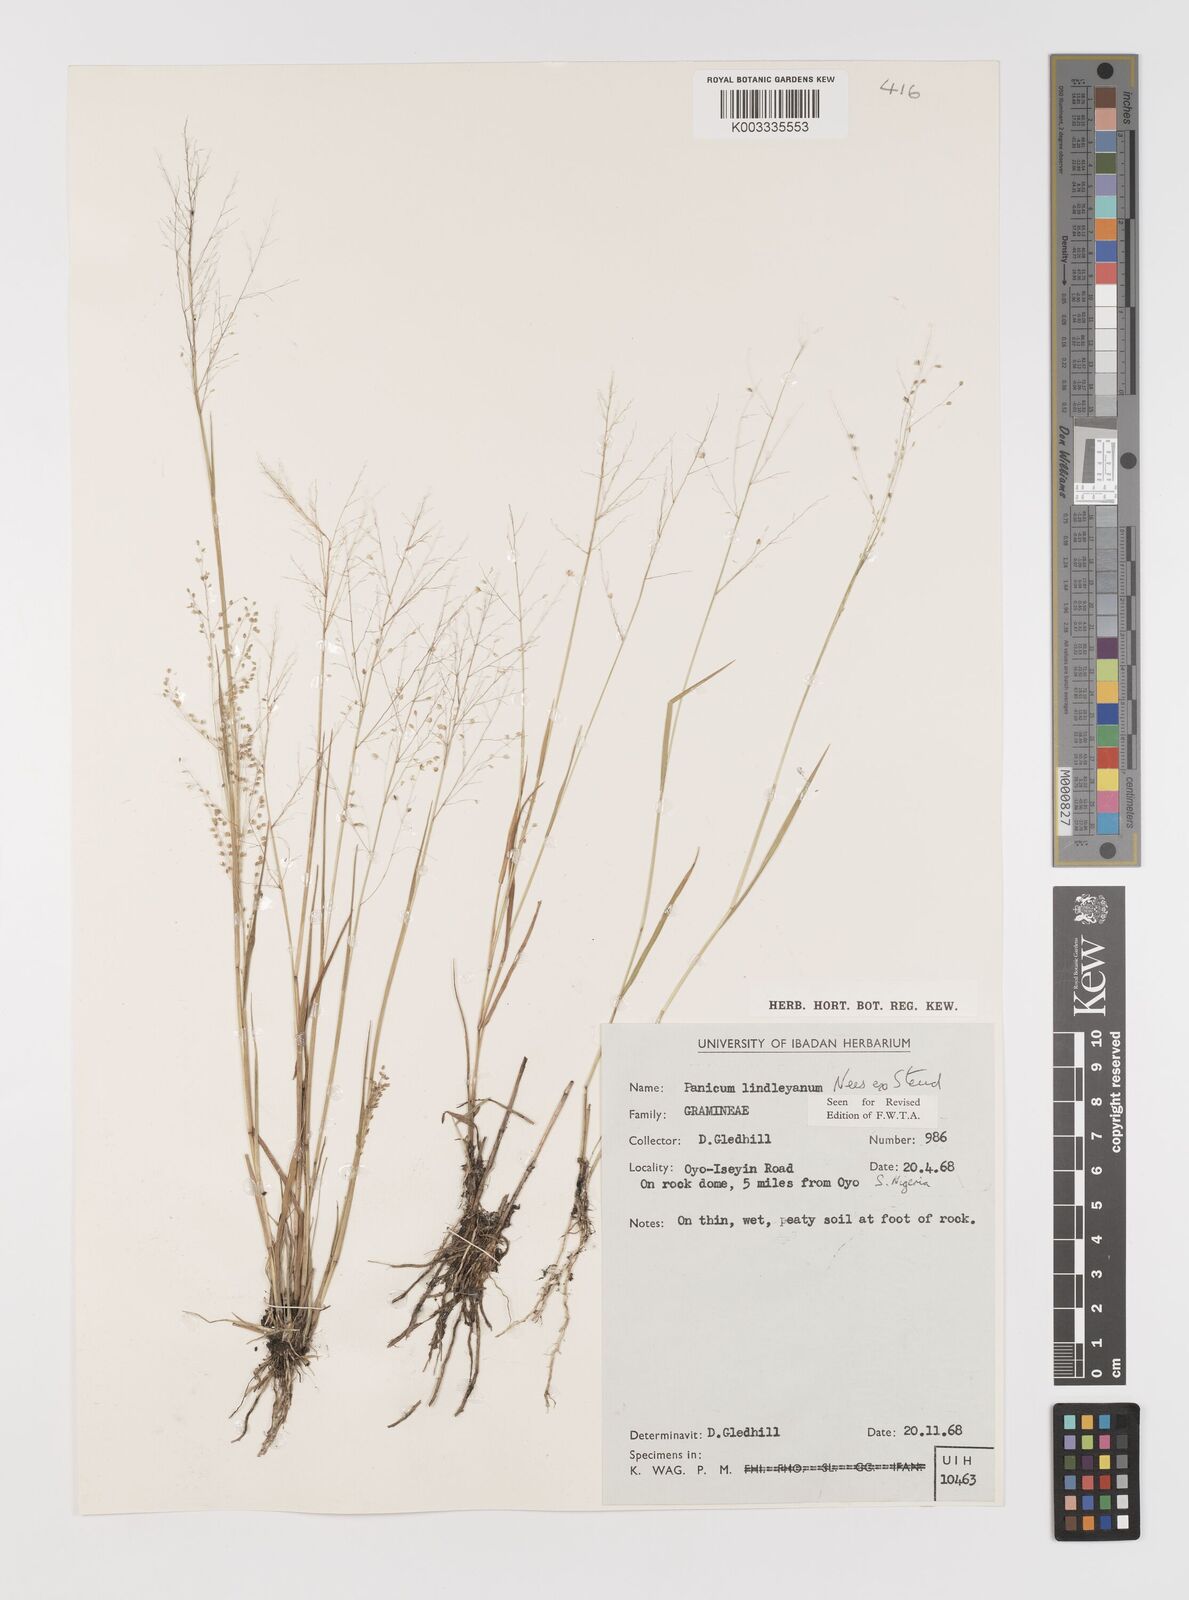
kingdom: Plantae
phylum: Tracheophyta
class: Liliopsida
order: Poales
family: Poaceae
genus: Trichanthecium
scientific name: Trichanthecium tenellum
